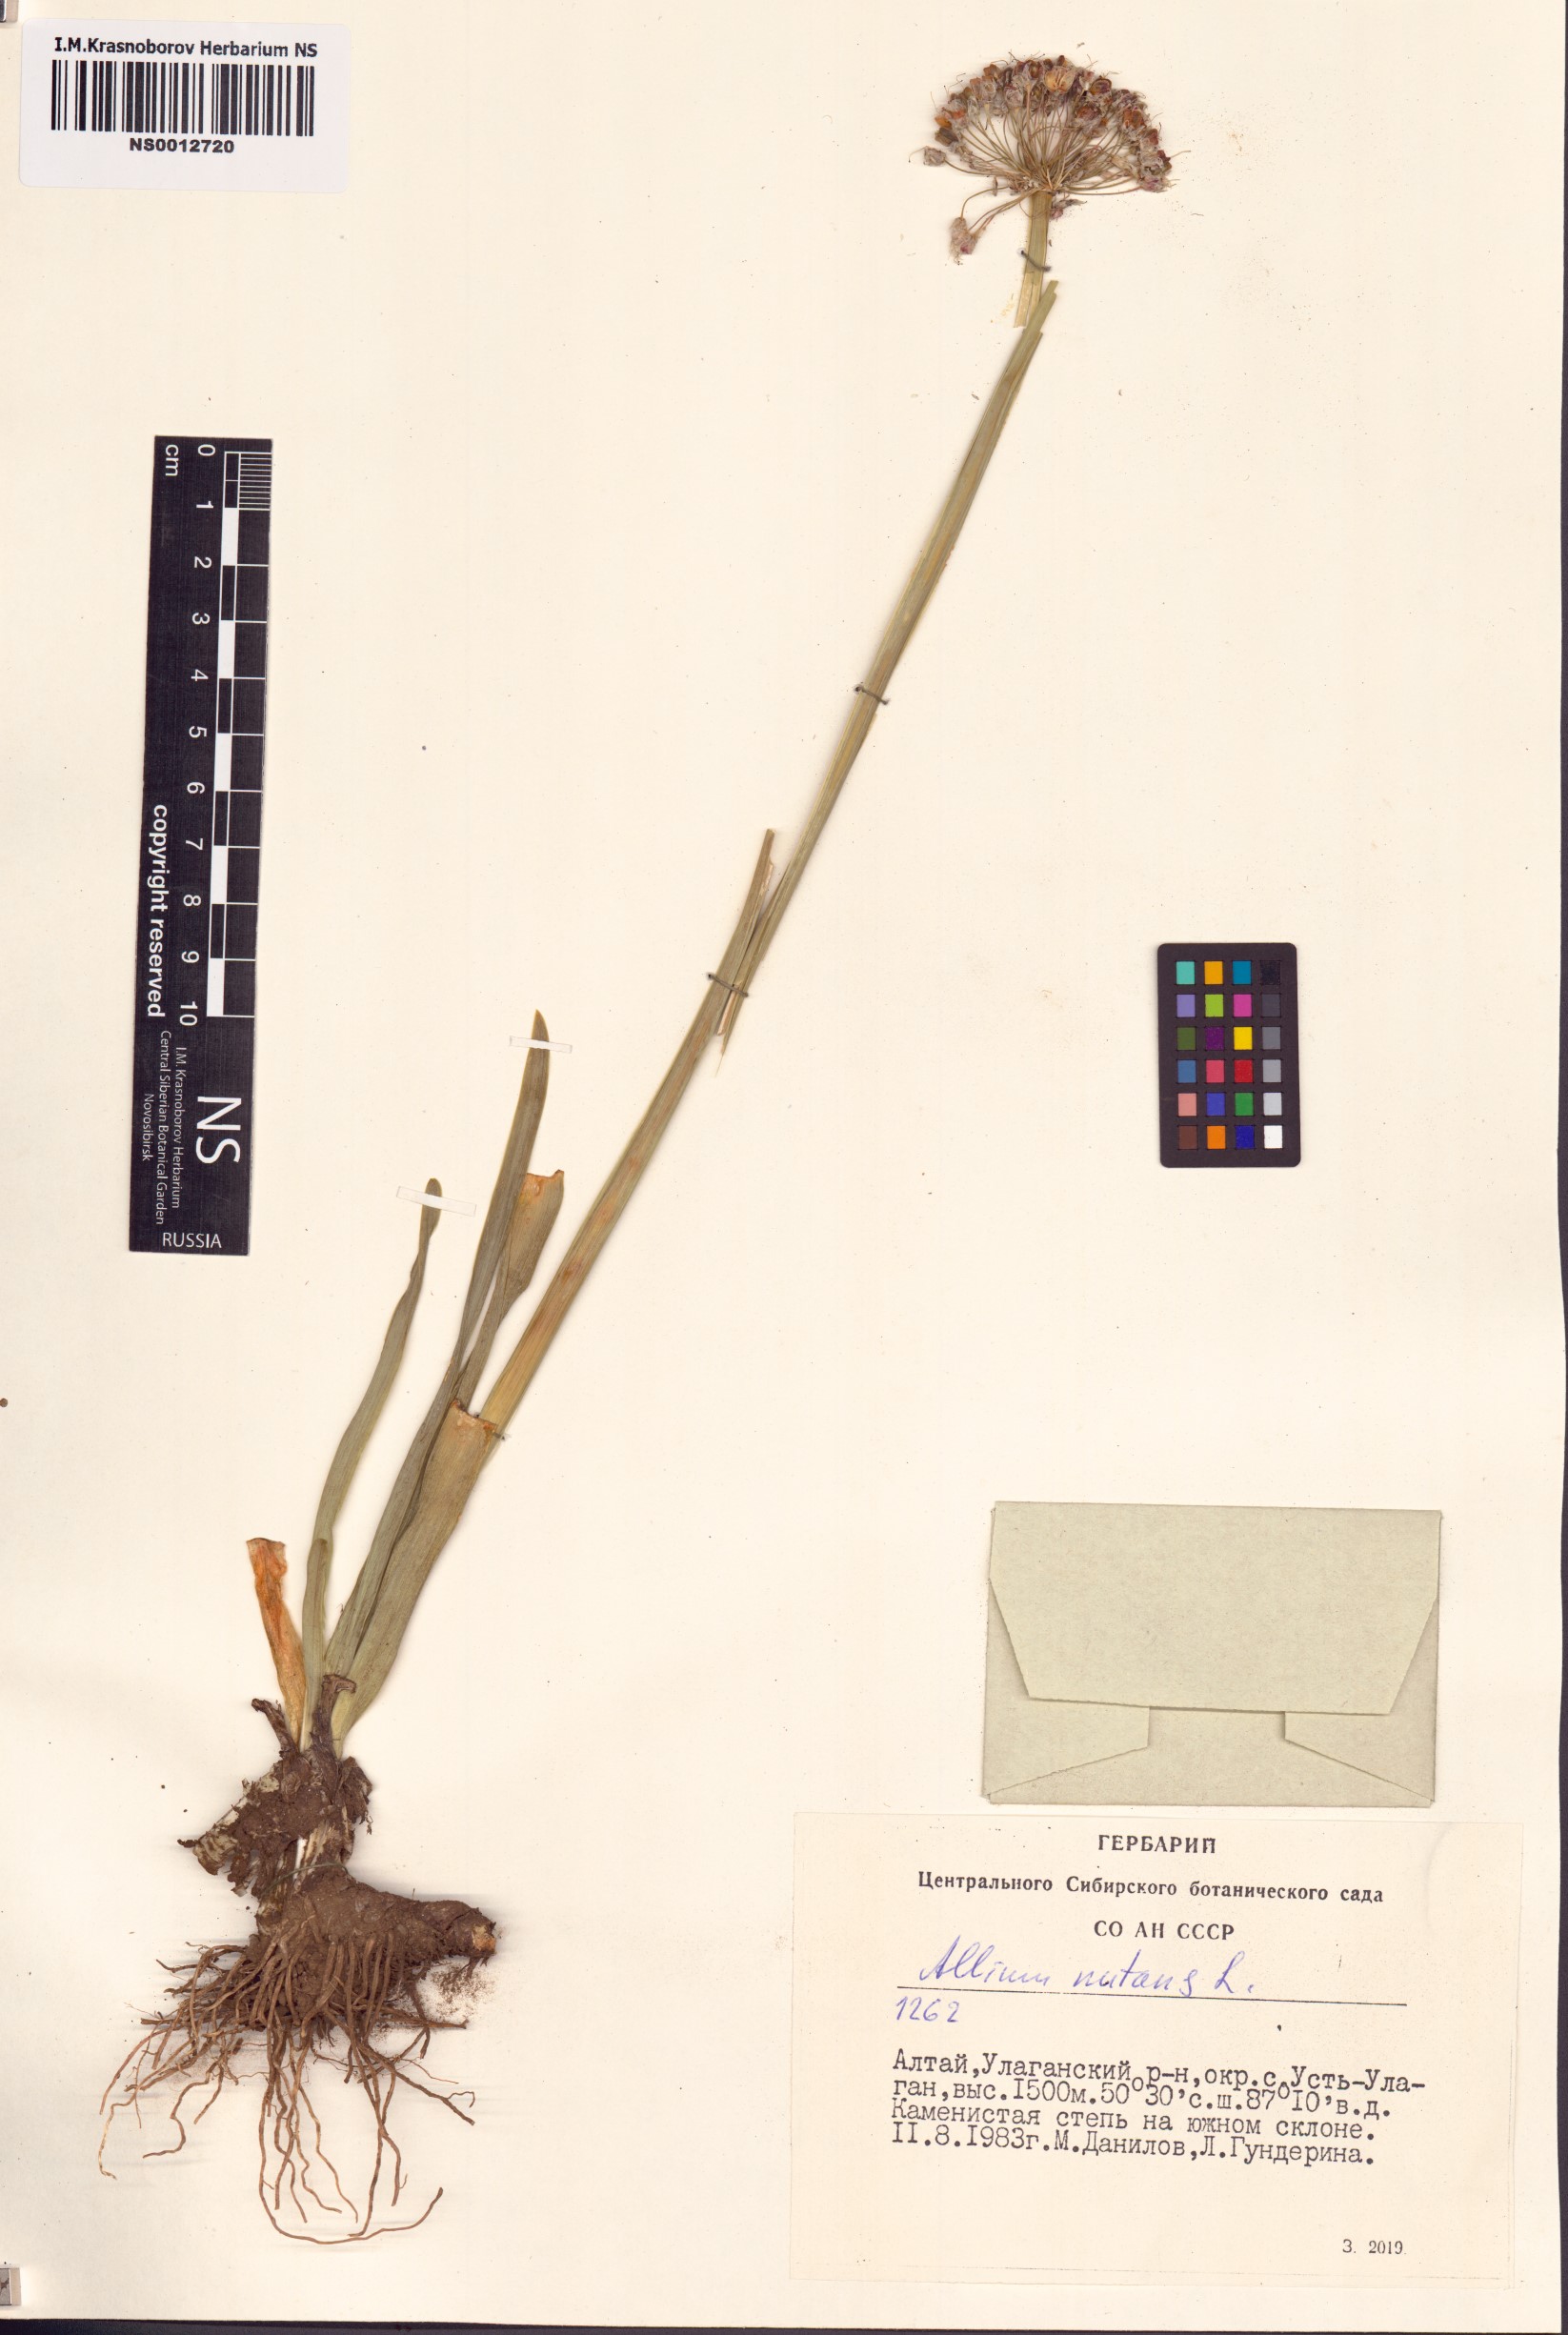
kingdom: Plantae
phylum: Tracheophyta
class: Liliopsida
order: Asparagales
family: Amaryllidaceae
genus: Allium
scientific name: Allium nutans
